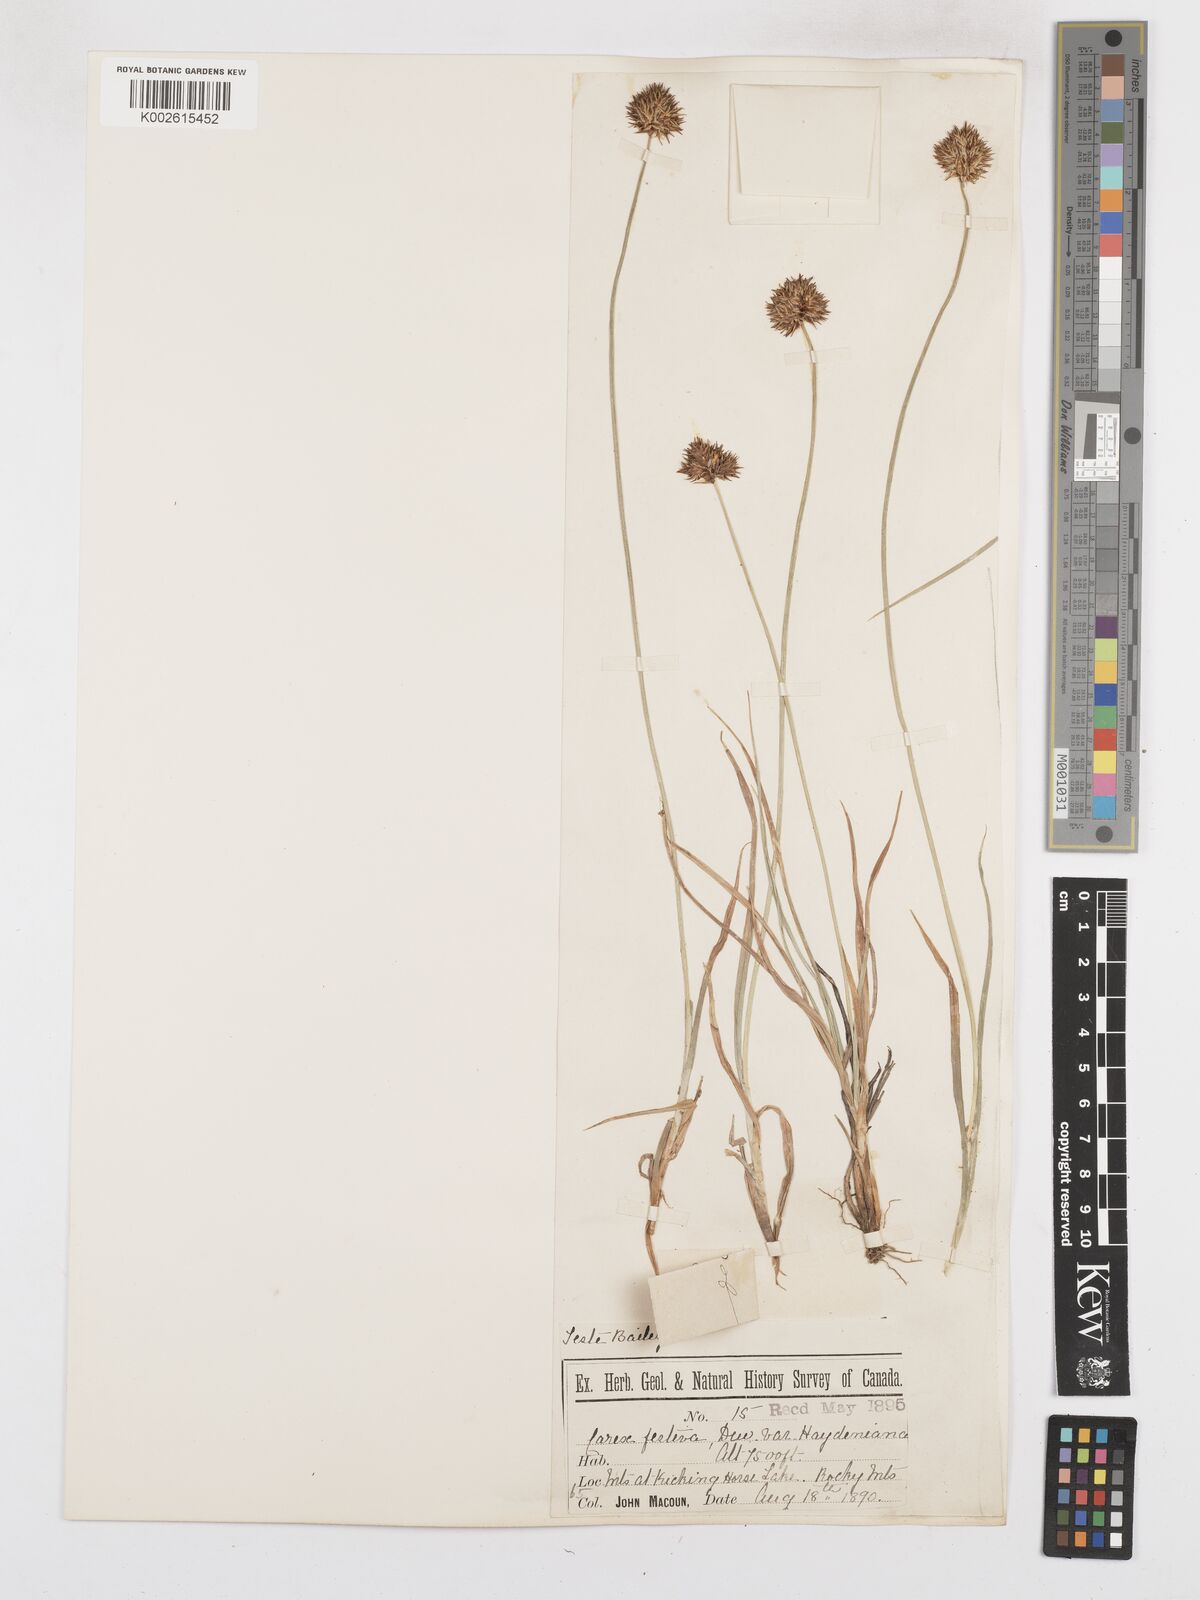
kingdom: Plantae
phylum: Tracheophyta
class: Liliopsida
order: Poales
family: Cyperaceae
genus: Carex
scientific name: Carex haydeniana
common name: Cloud sedge
